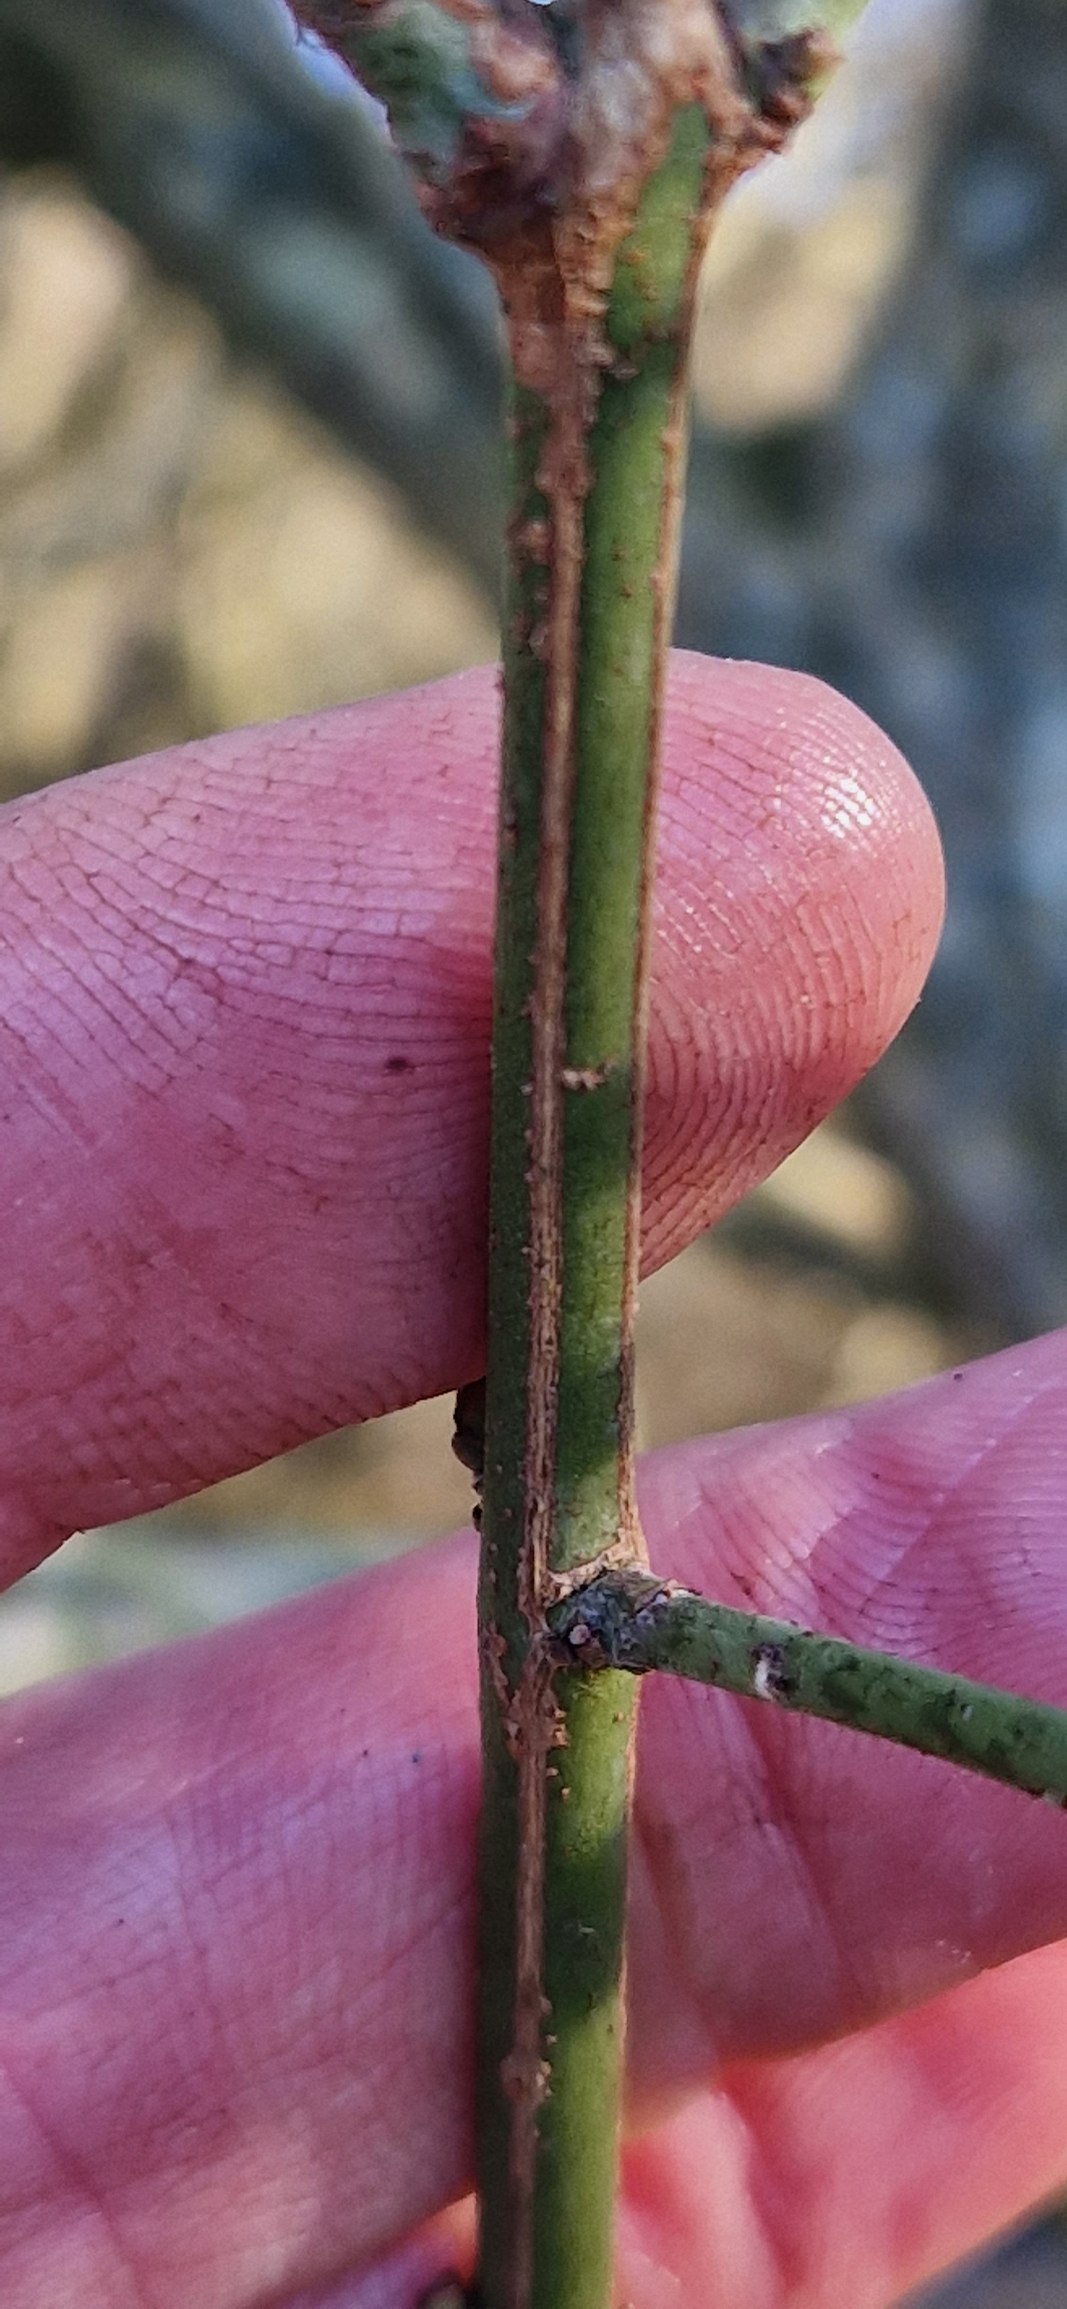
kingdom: Plantae
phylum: Tracheophyta
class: Magnoliopsida
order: Celastrales
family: Celastraceae
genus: Euonymus
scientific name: Euonymus europaeus
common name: Benved
